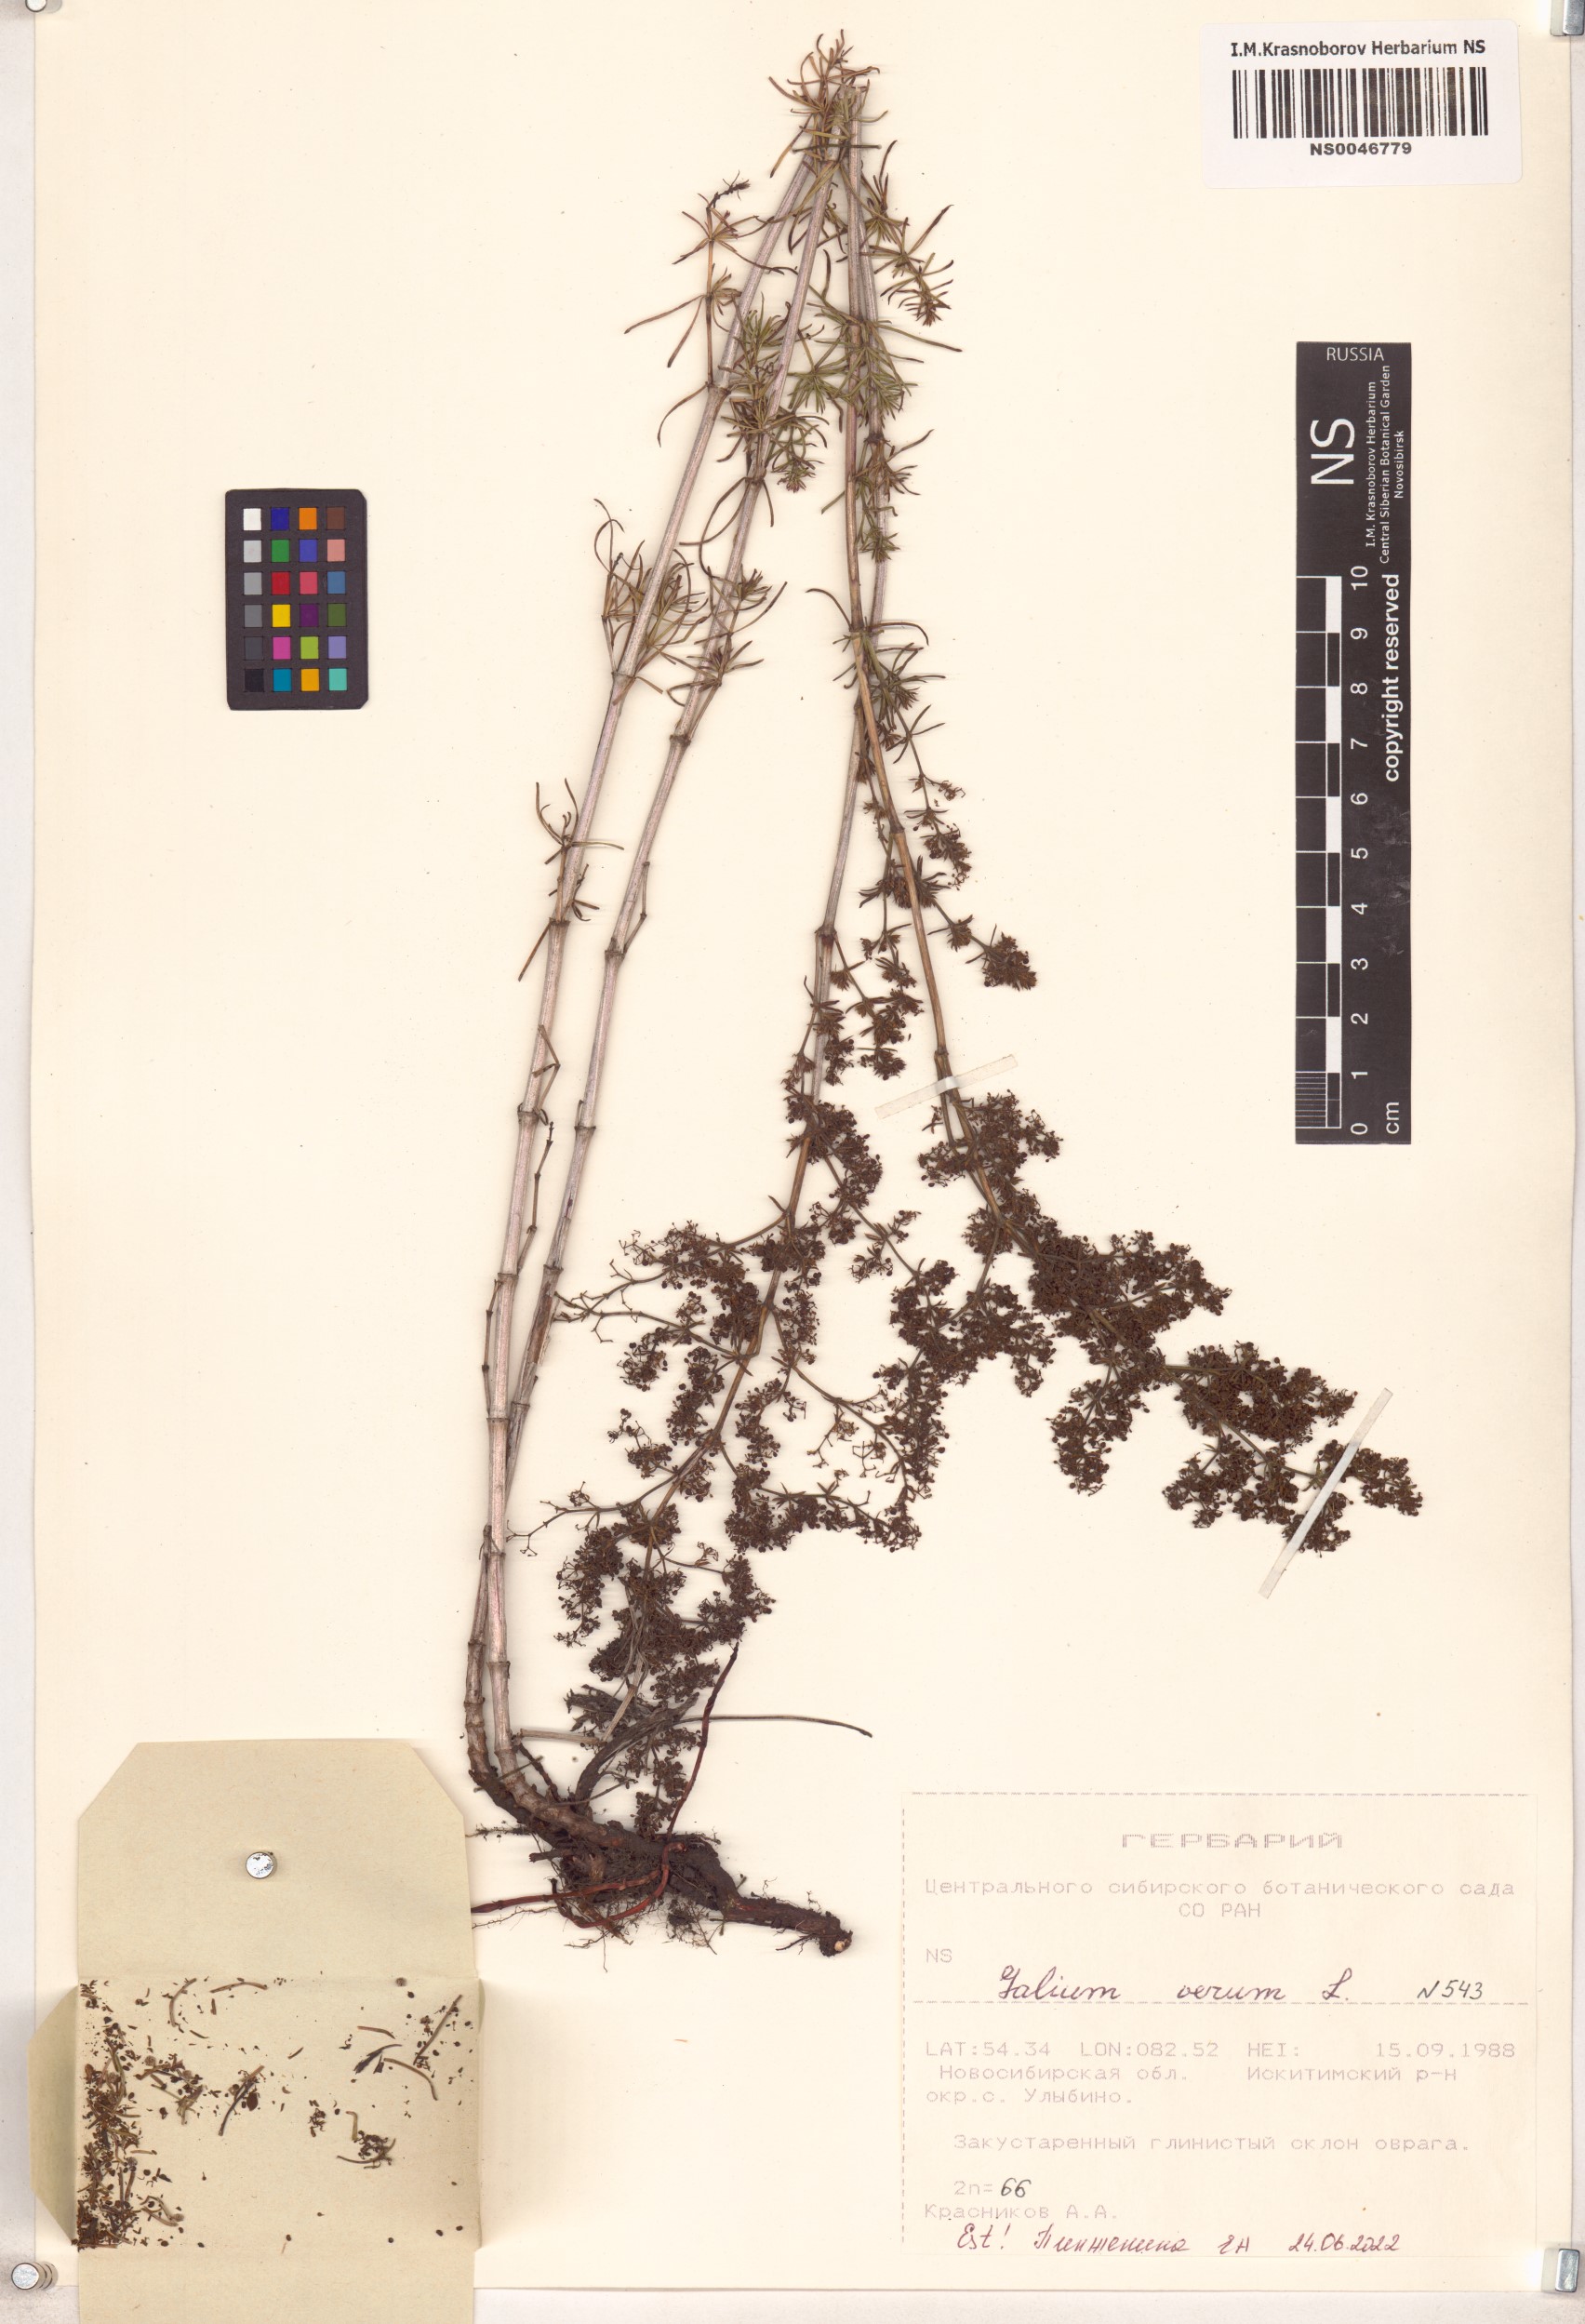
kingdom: Plantae
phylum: Tracheophyta
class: Magnoliopsida
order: Gentianales
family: Rubiaceae
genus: Galium
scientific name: Galium verum
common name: Lady's bedstraw
